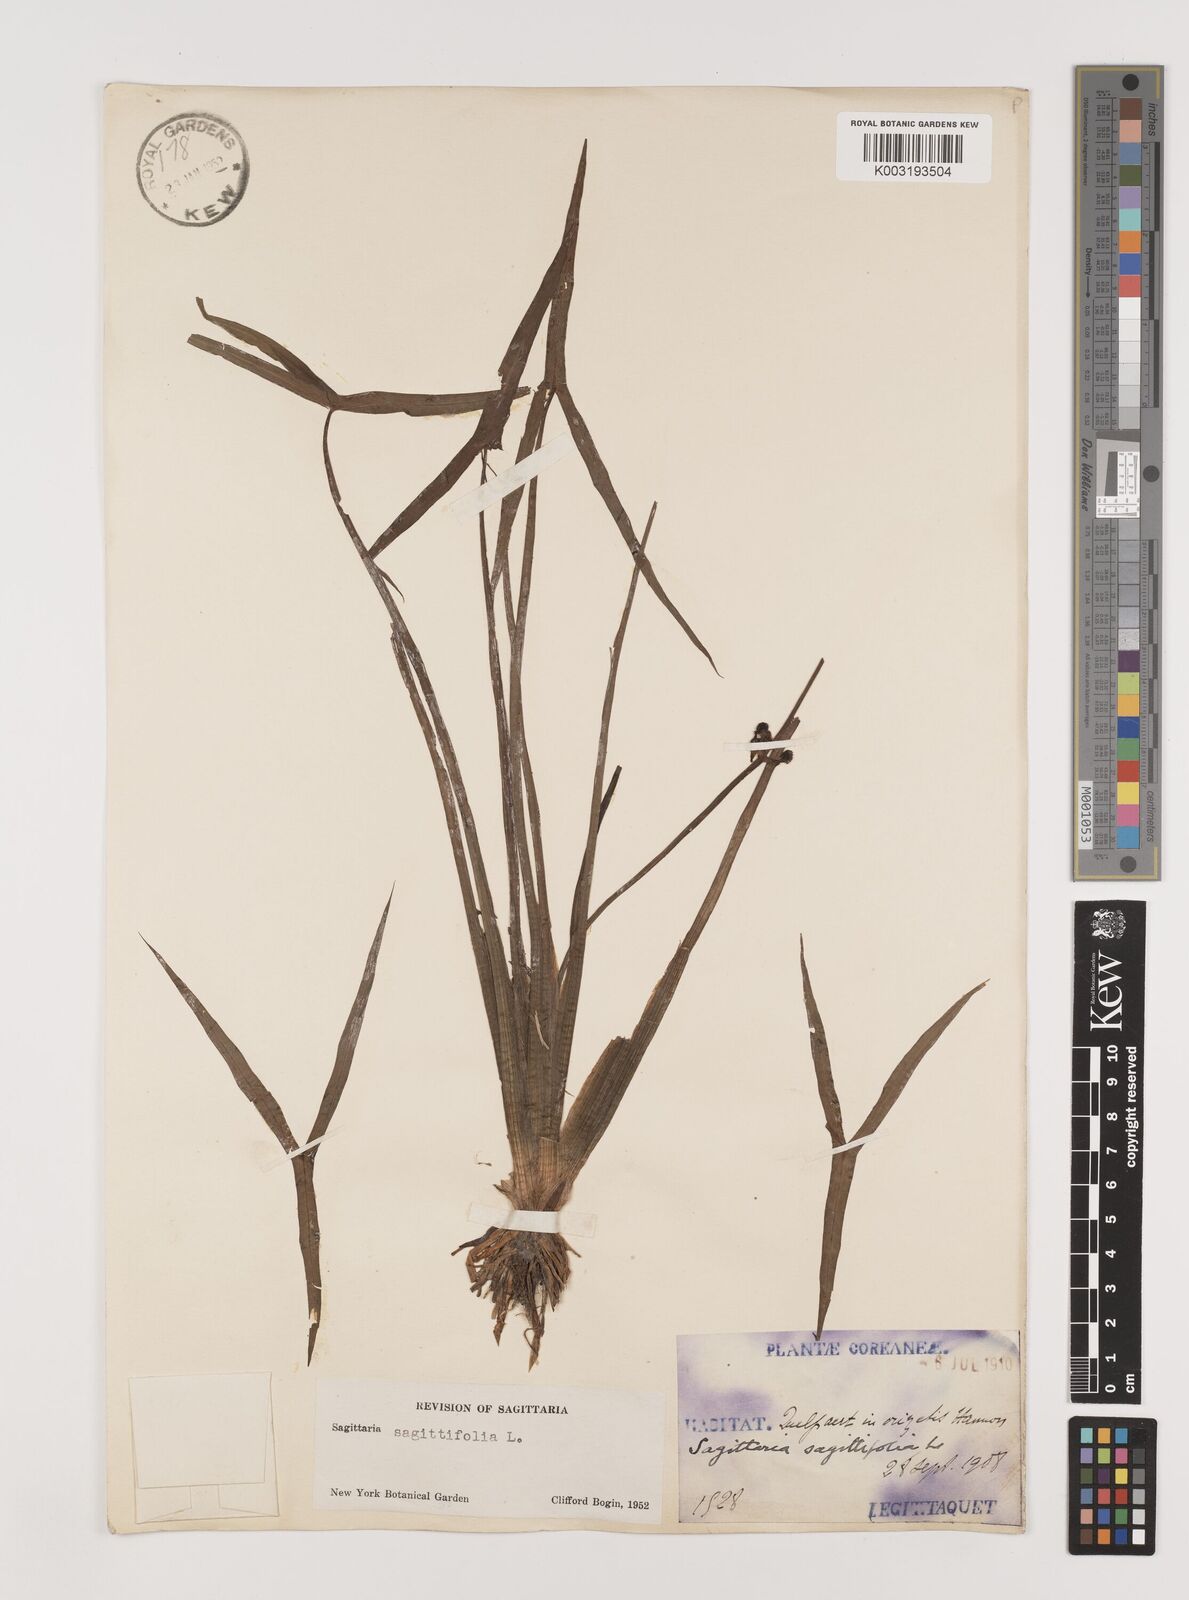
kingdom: Plantae
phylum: Tracheophyta
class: Liliopsida
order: Alismatales
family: Alismataceae
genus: Sagittaria
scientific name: Sagittaria sagittifolia
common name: Arrowhead
